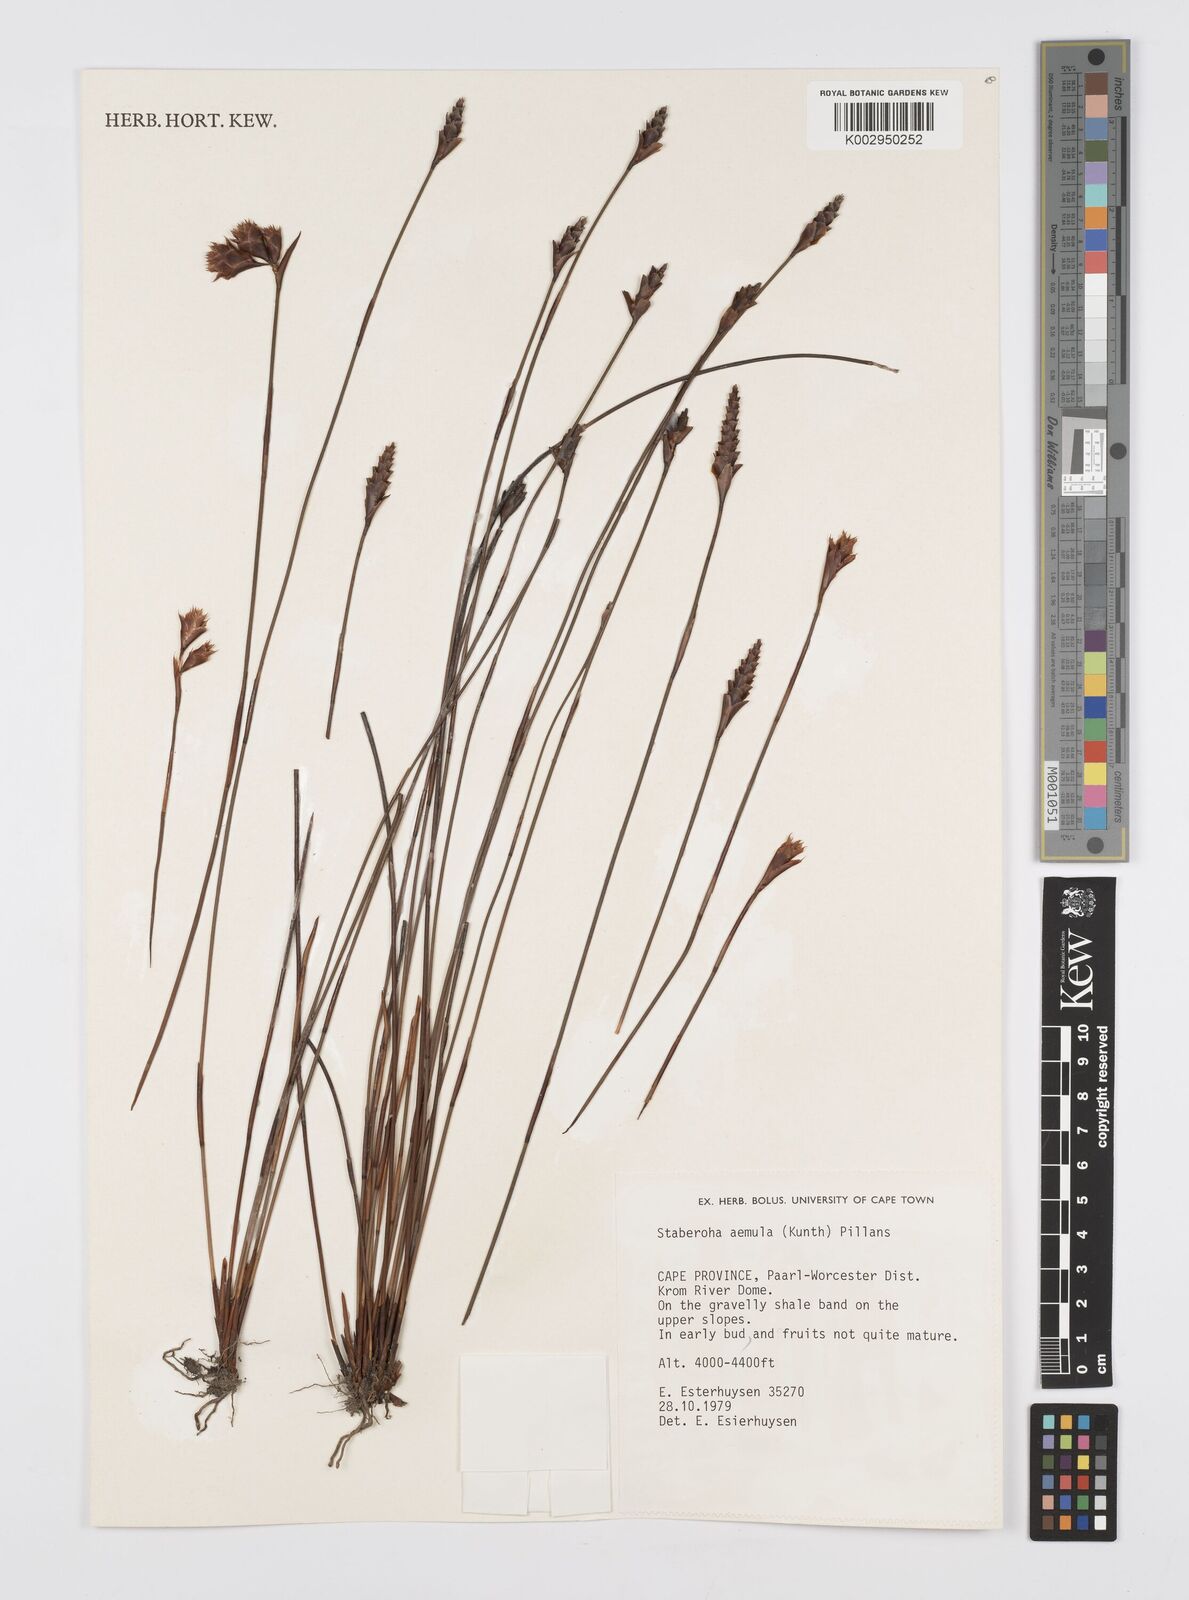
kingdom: Plantae
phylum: Tracheophyta
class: Liliopsida
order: Poales
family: Restionaceae
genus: Staberoha
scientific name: Staberoha aemula
